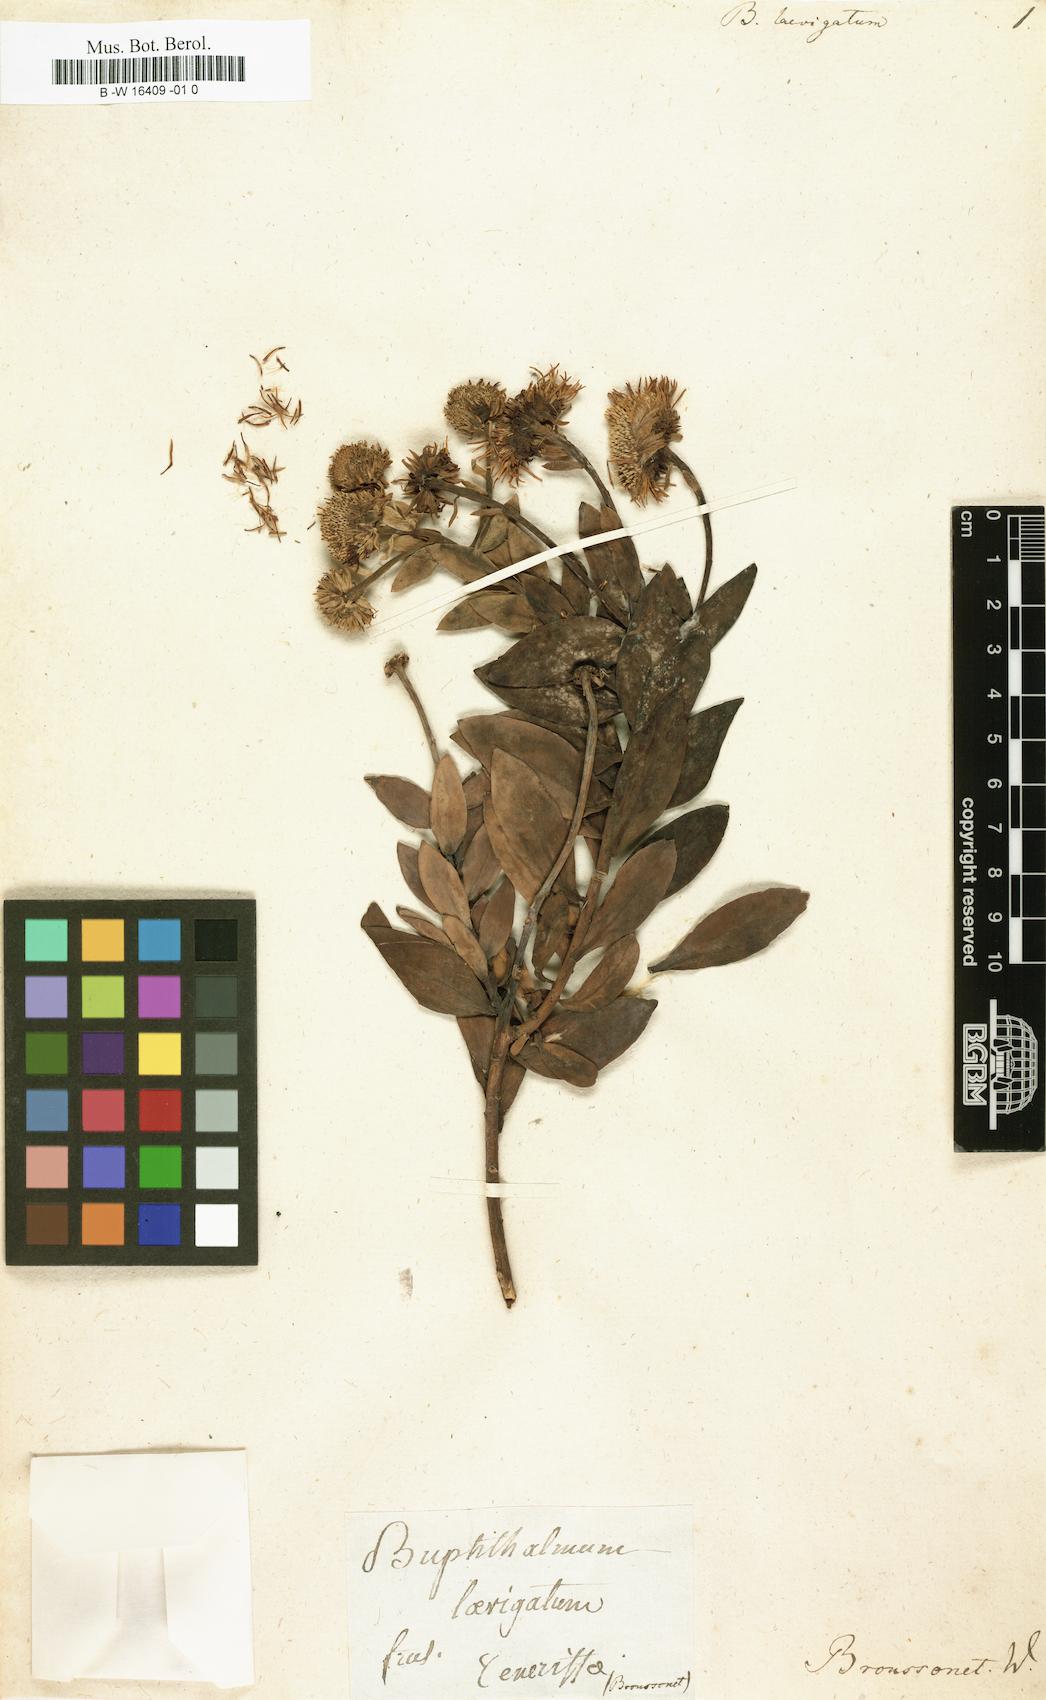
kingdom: Plantae
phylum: Tracheophyta
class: Magnoliopsida
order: Asterales
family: Asteraceae
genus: Vieraea
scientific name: Vieraea laevigata
